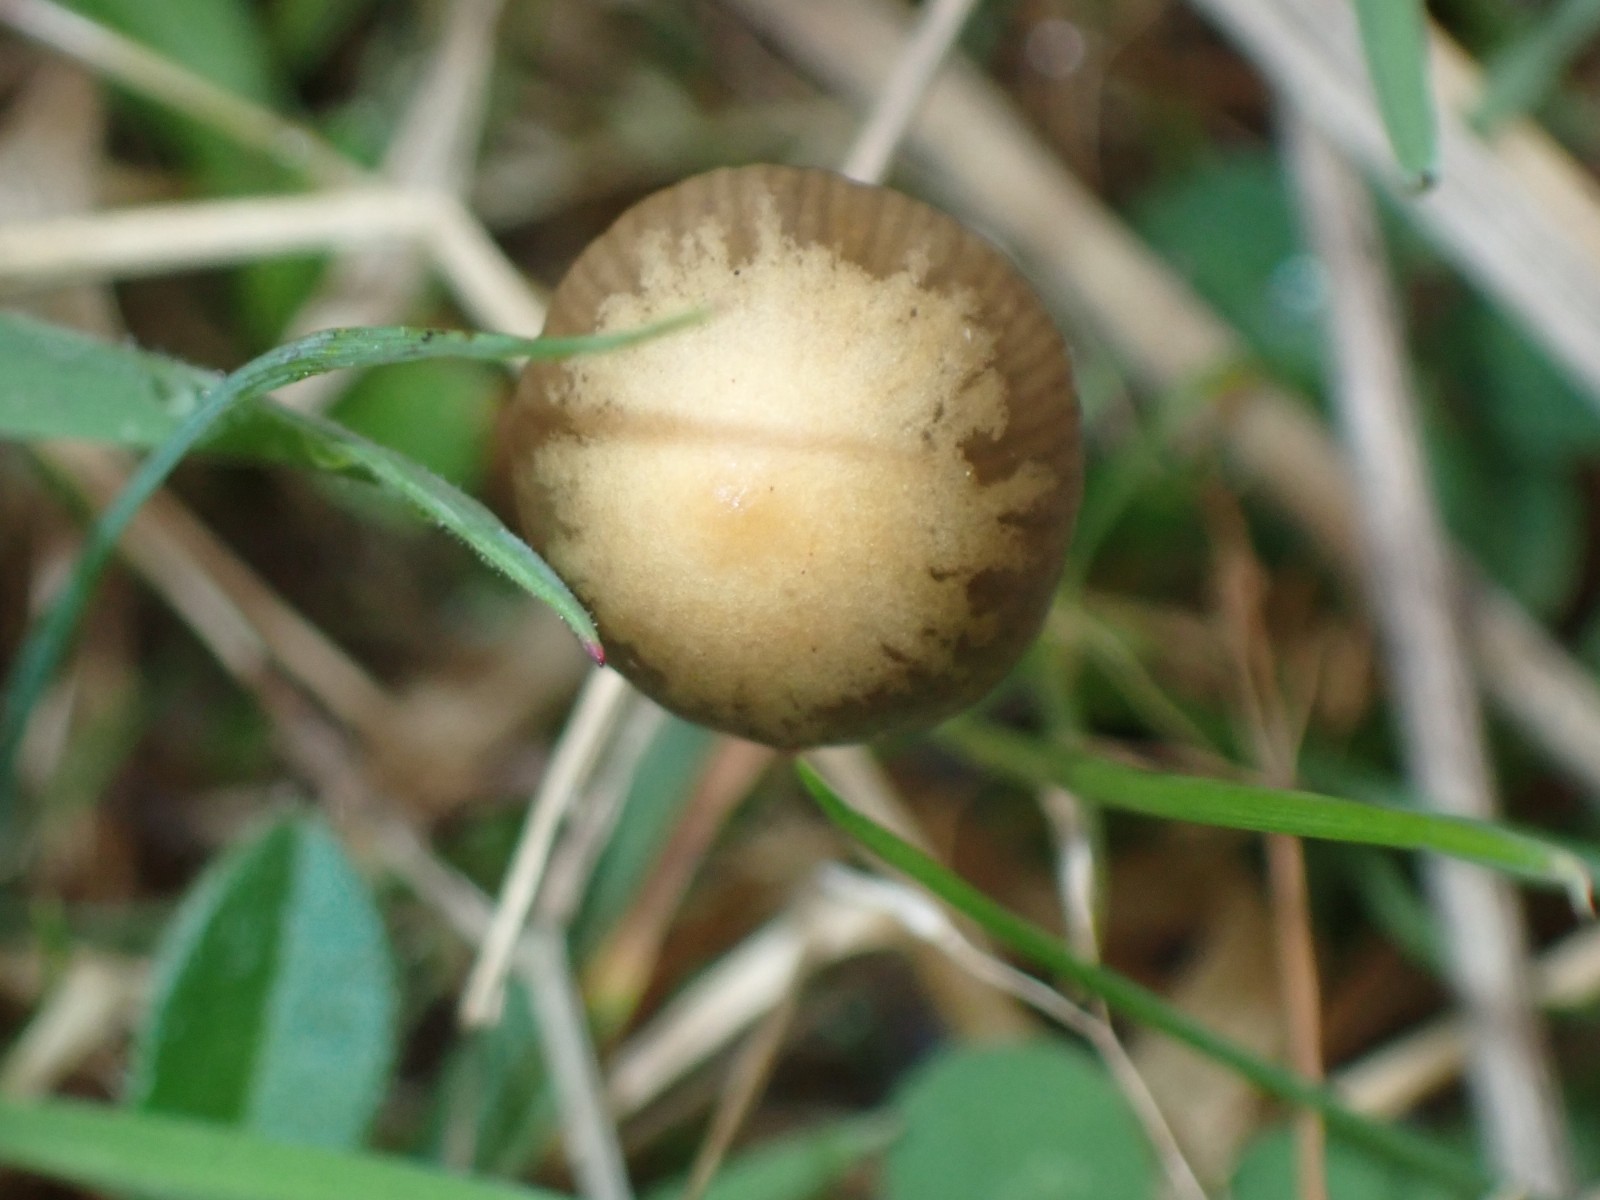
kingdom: Fungi
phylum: Basidiomycota
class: Agaricomycetes
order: Agaricales
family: Hymenogastraceae
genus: Psilocybe
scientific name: Psilocybe semilanceata
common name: spids nøgenhat
